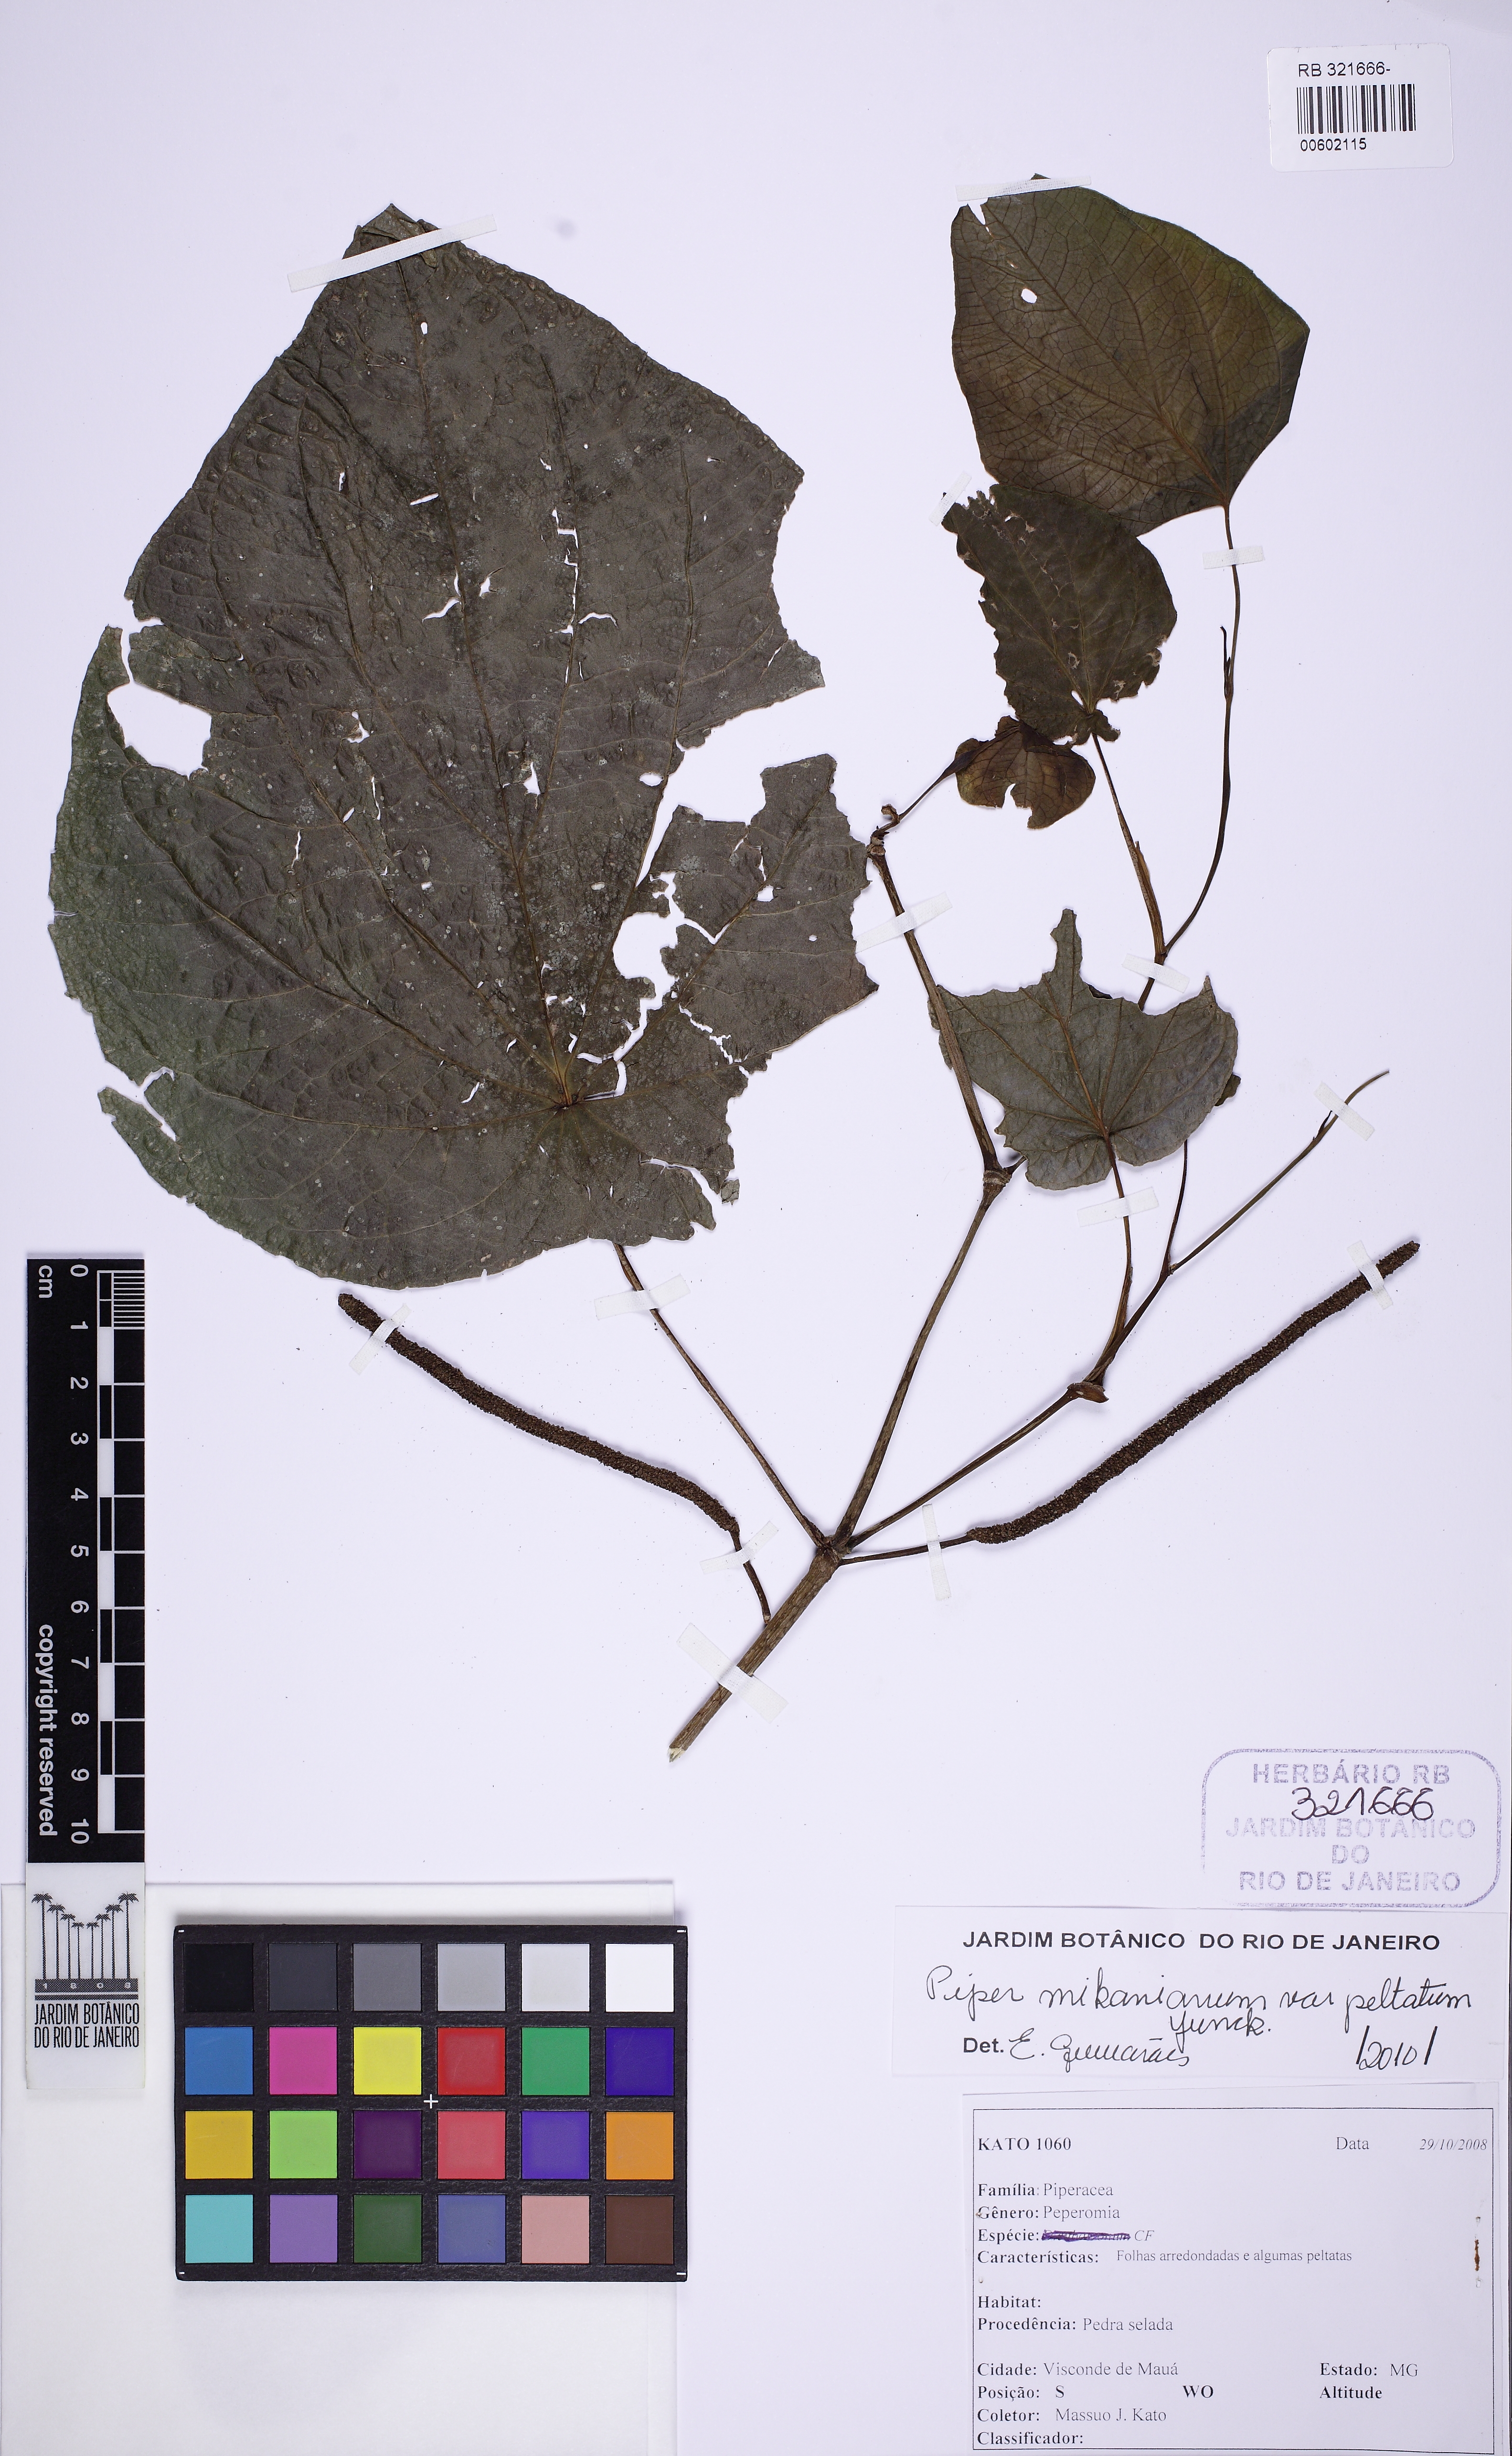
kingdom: Plantae
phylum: Tracheophyta
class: Magnoliopsida
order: Piperales
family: Piperaceae
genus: Piper
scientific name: Piper mikanianum
